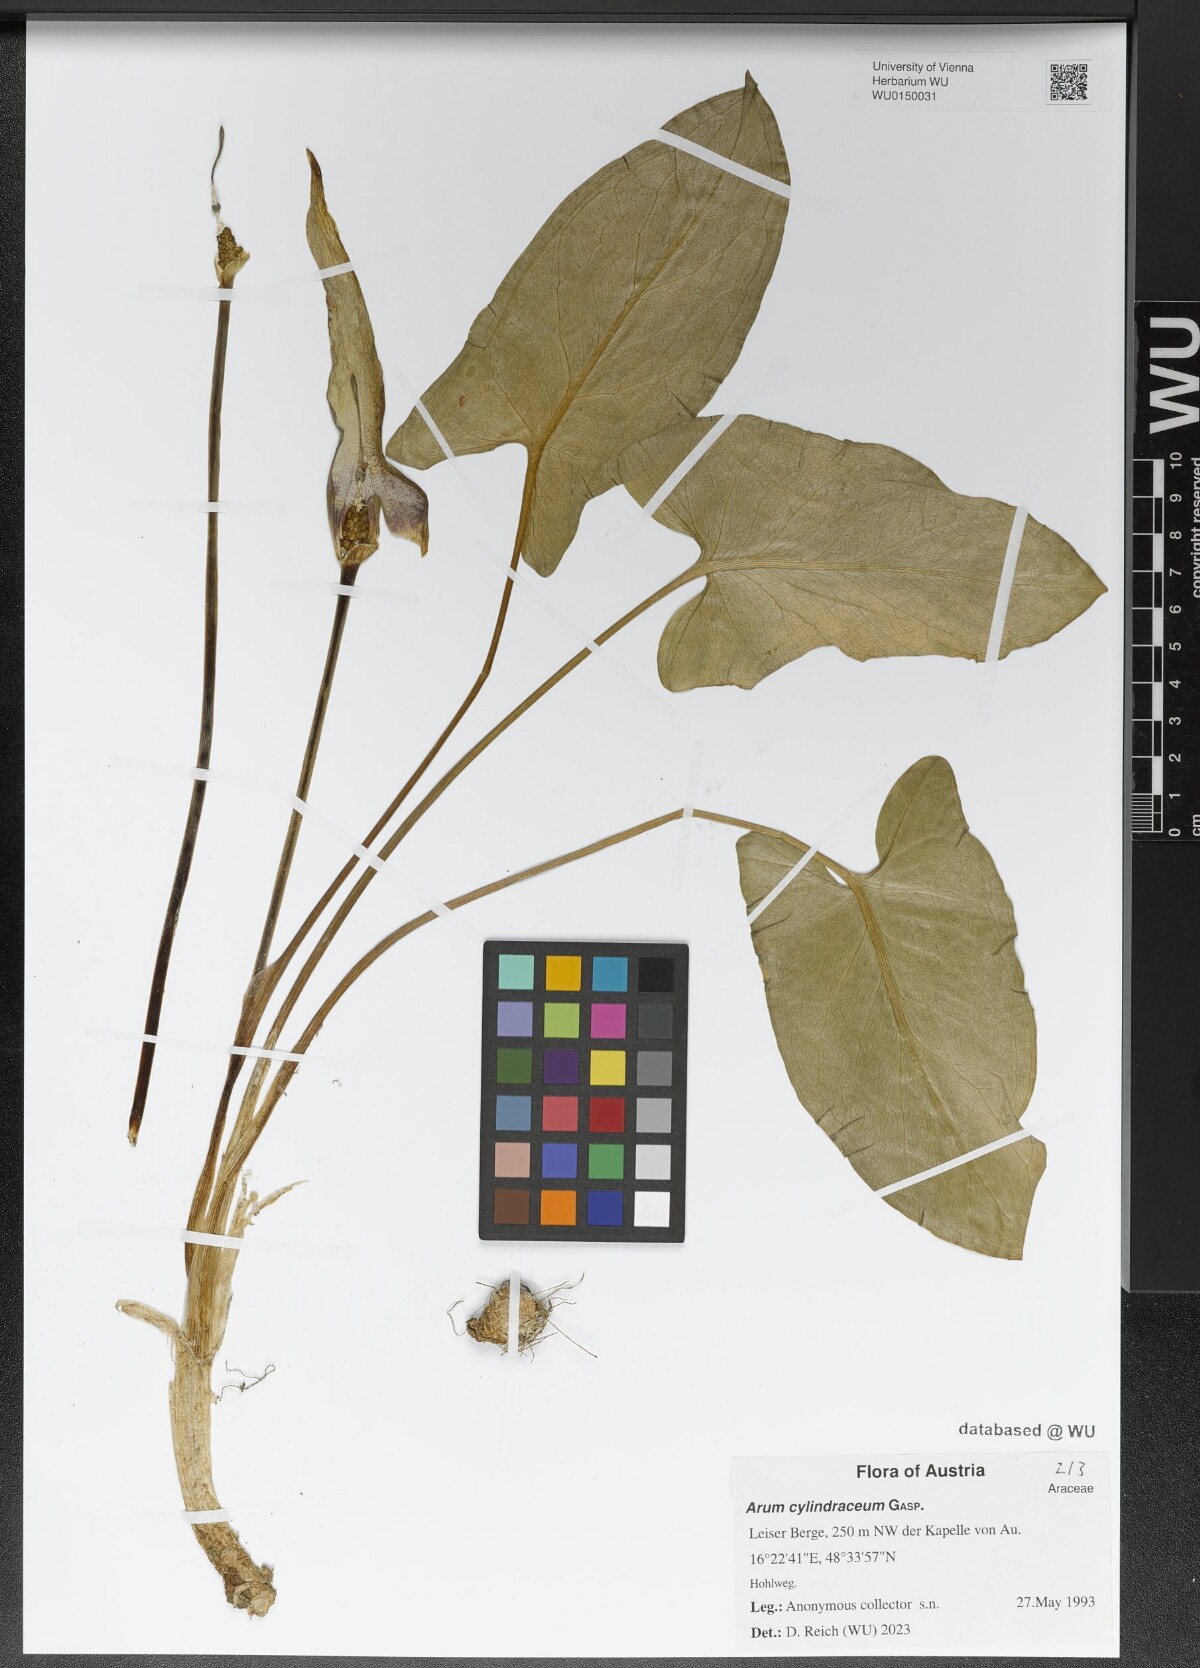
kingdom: Plantae
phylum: Tracheophyta
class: Liliopsida
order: Alismatales
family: Araceae
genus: Arum
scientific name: Arum cylindraceum
